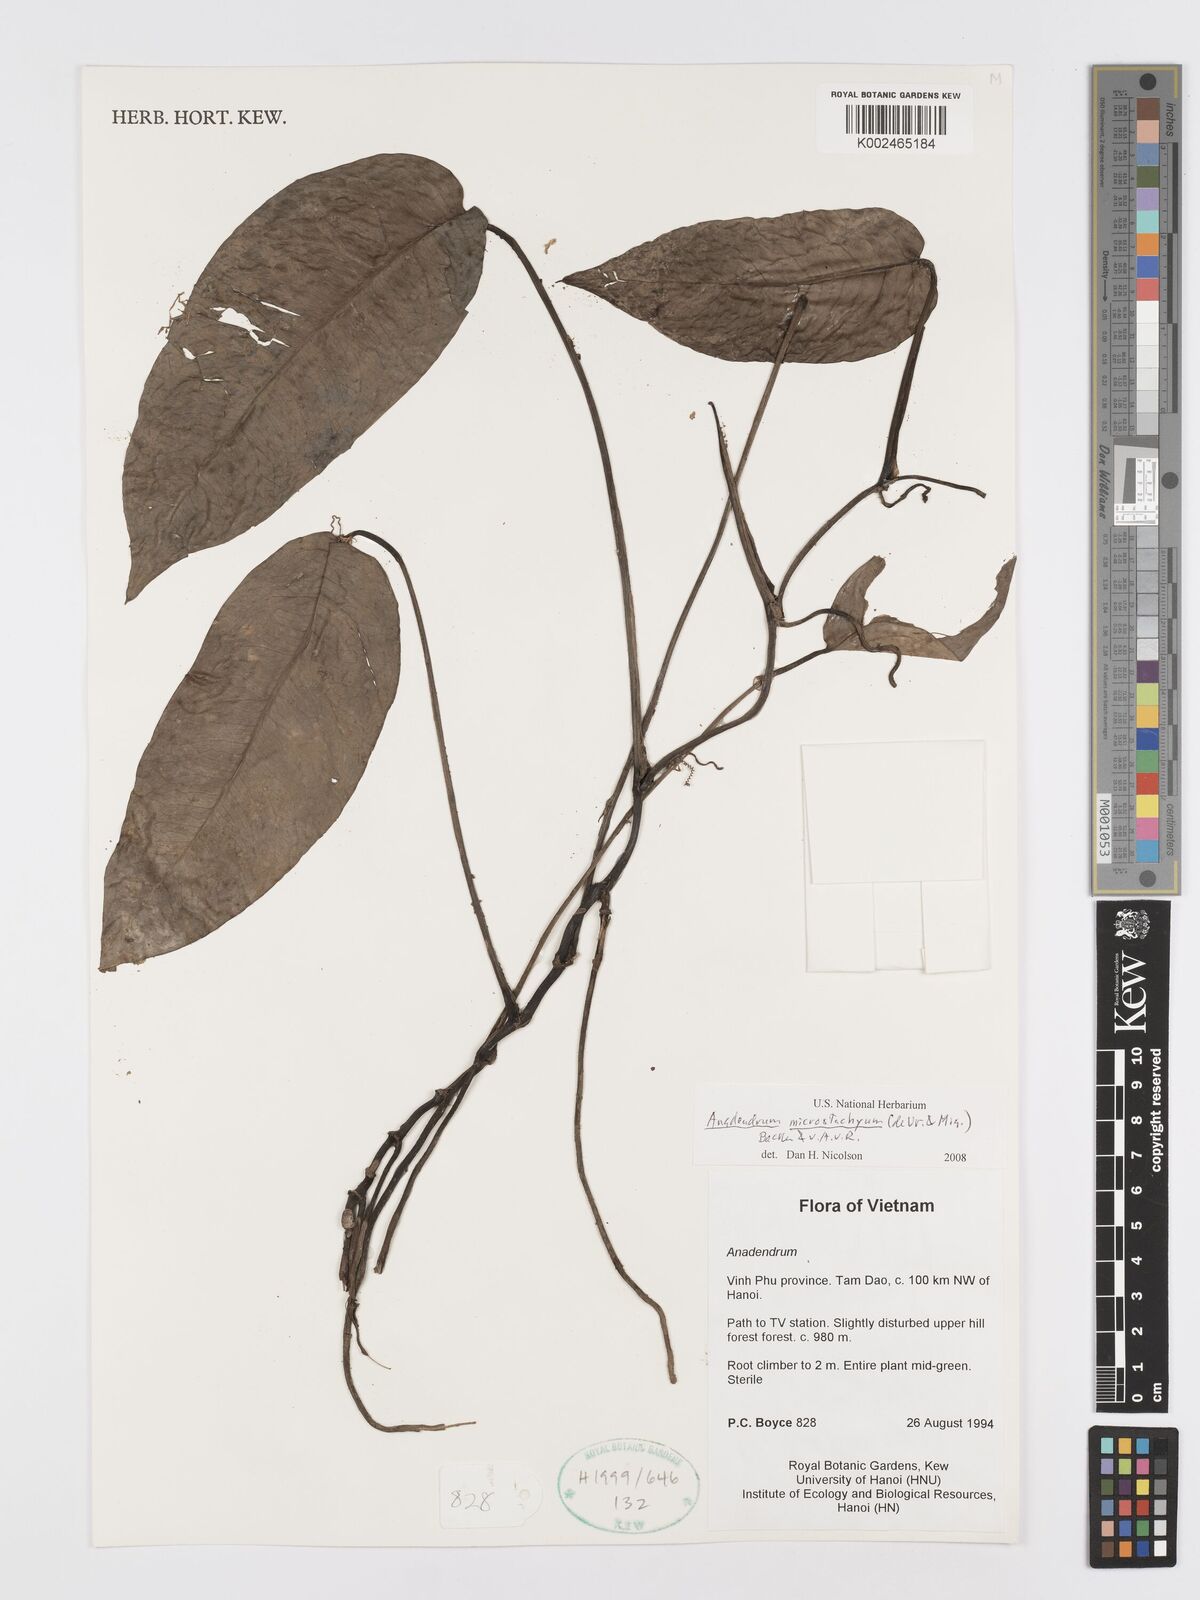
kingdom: Plantae
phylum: Tracheophyta
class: Liliopsida
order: Alismatales
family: Araceae
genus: Anadendrum
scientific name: Anadendrum microstachyum
